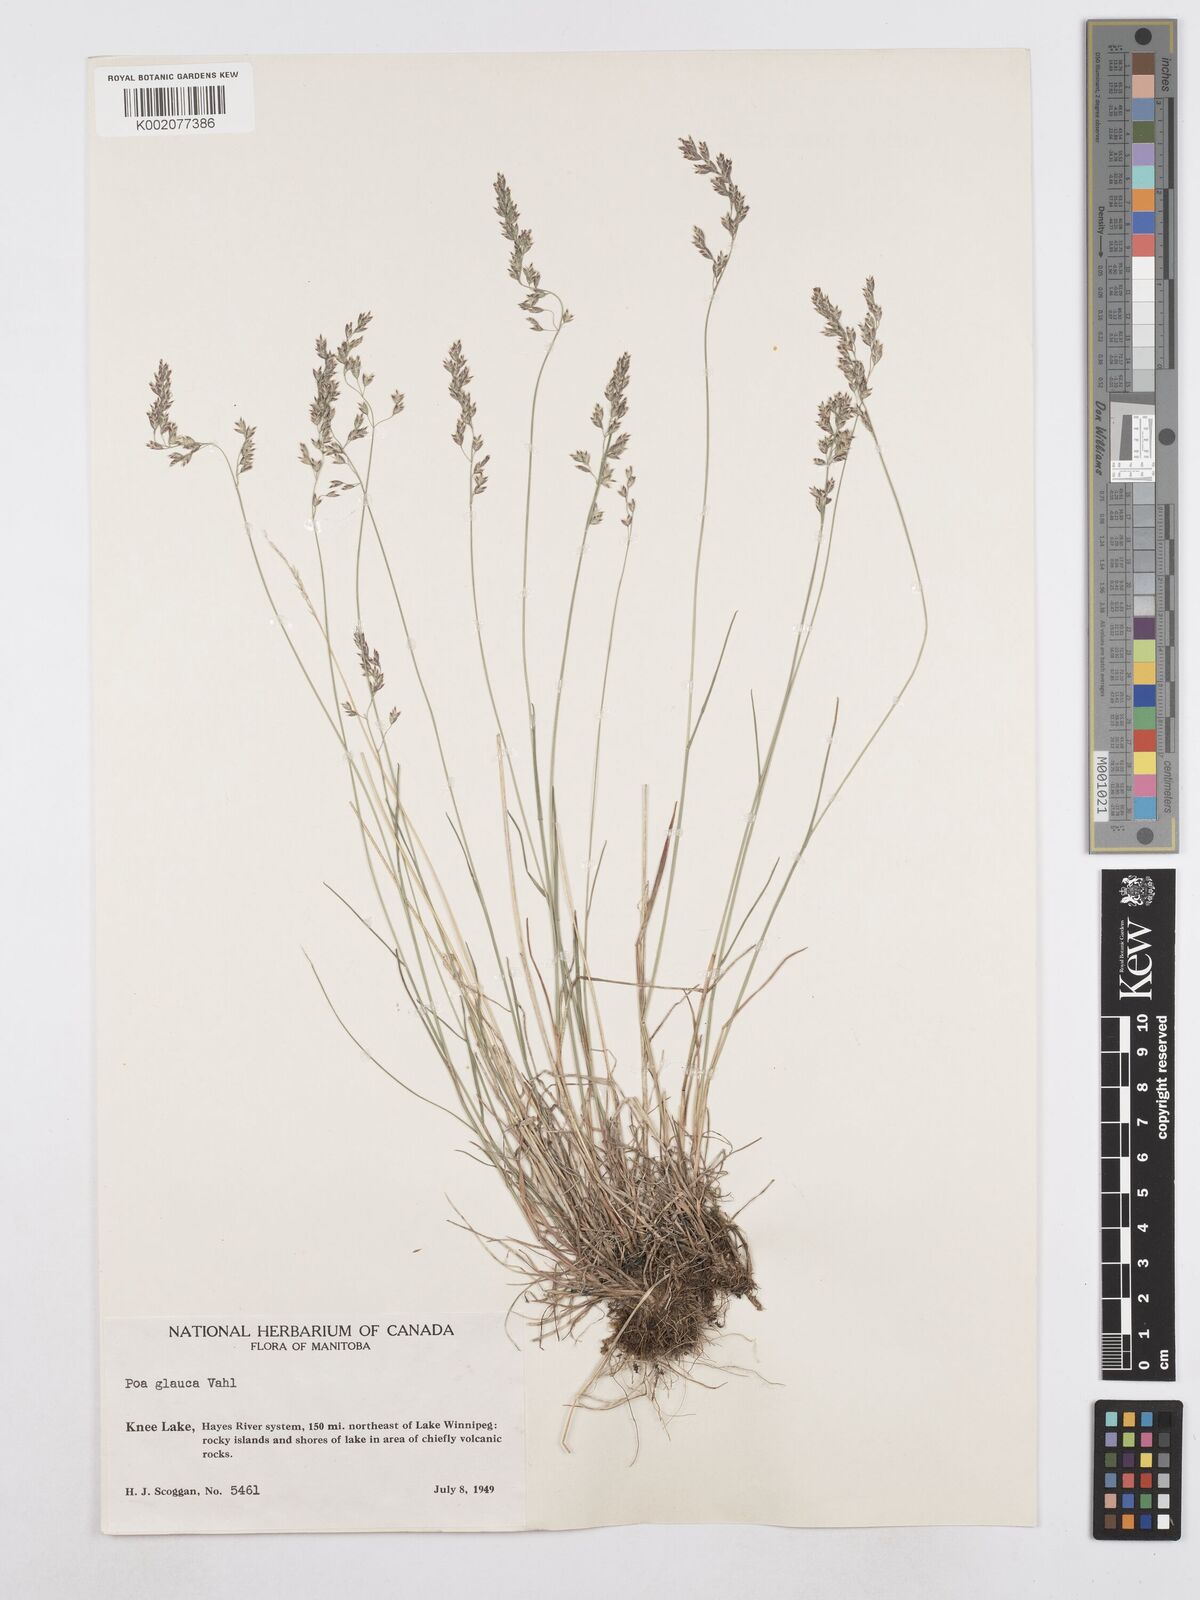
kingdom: Plantae
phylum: Tracheophyta
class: Liliopsida
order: Poales
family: Poaceae
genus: Poa
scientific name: Poa glauca
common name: Glaucous bluegrass
